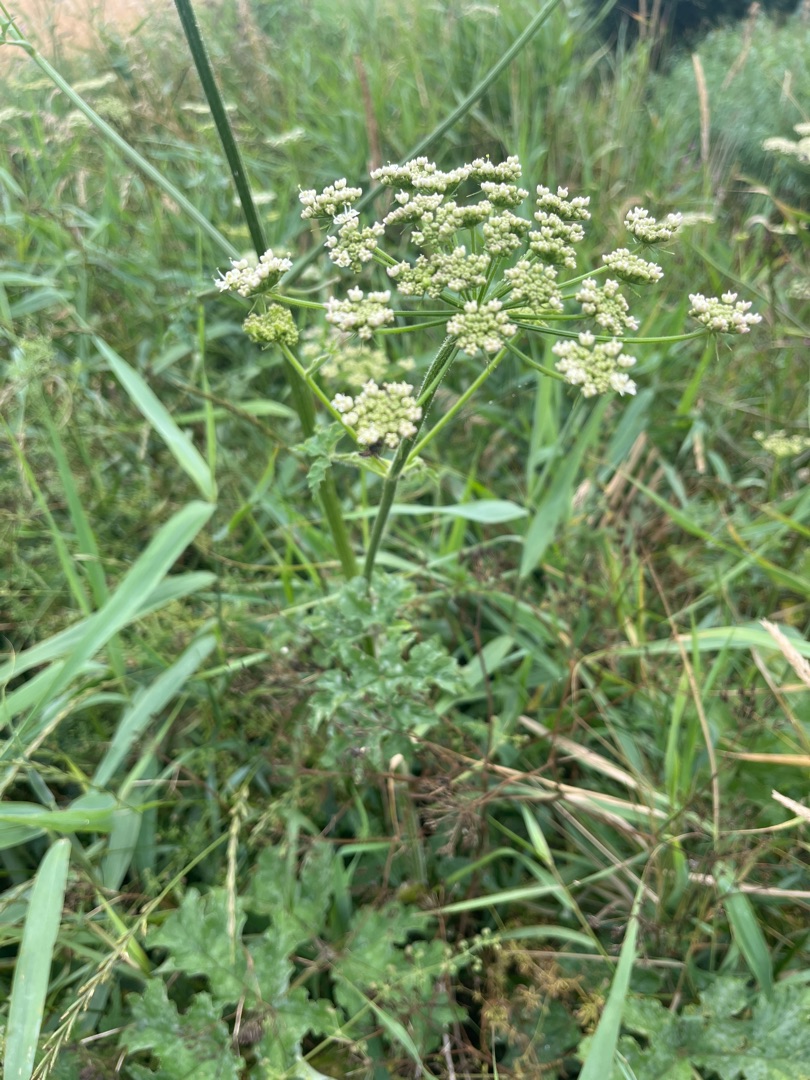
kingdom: Plantae
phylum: Tracheophyta
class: Magnoliopsida
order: Apiales
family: Apiaceae
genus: Heracleum
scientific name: Heracleum sphondylium
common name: Almindelig bjørneklo
